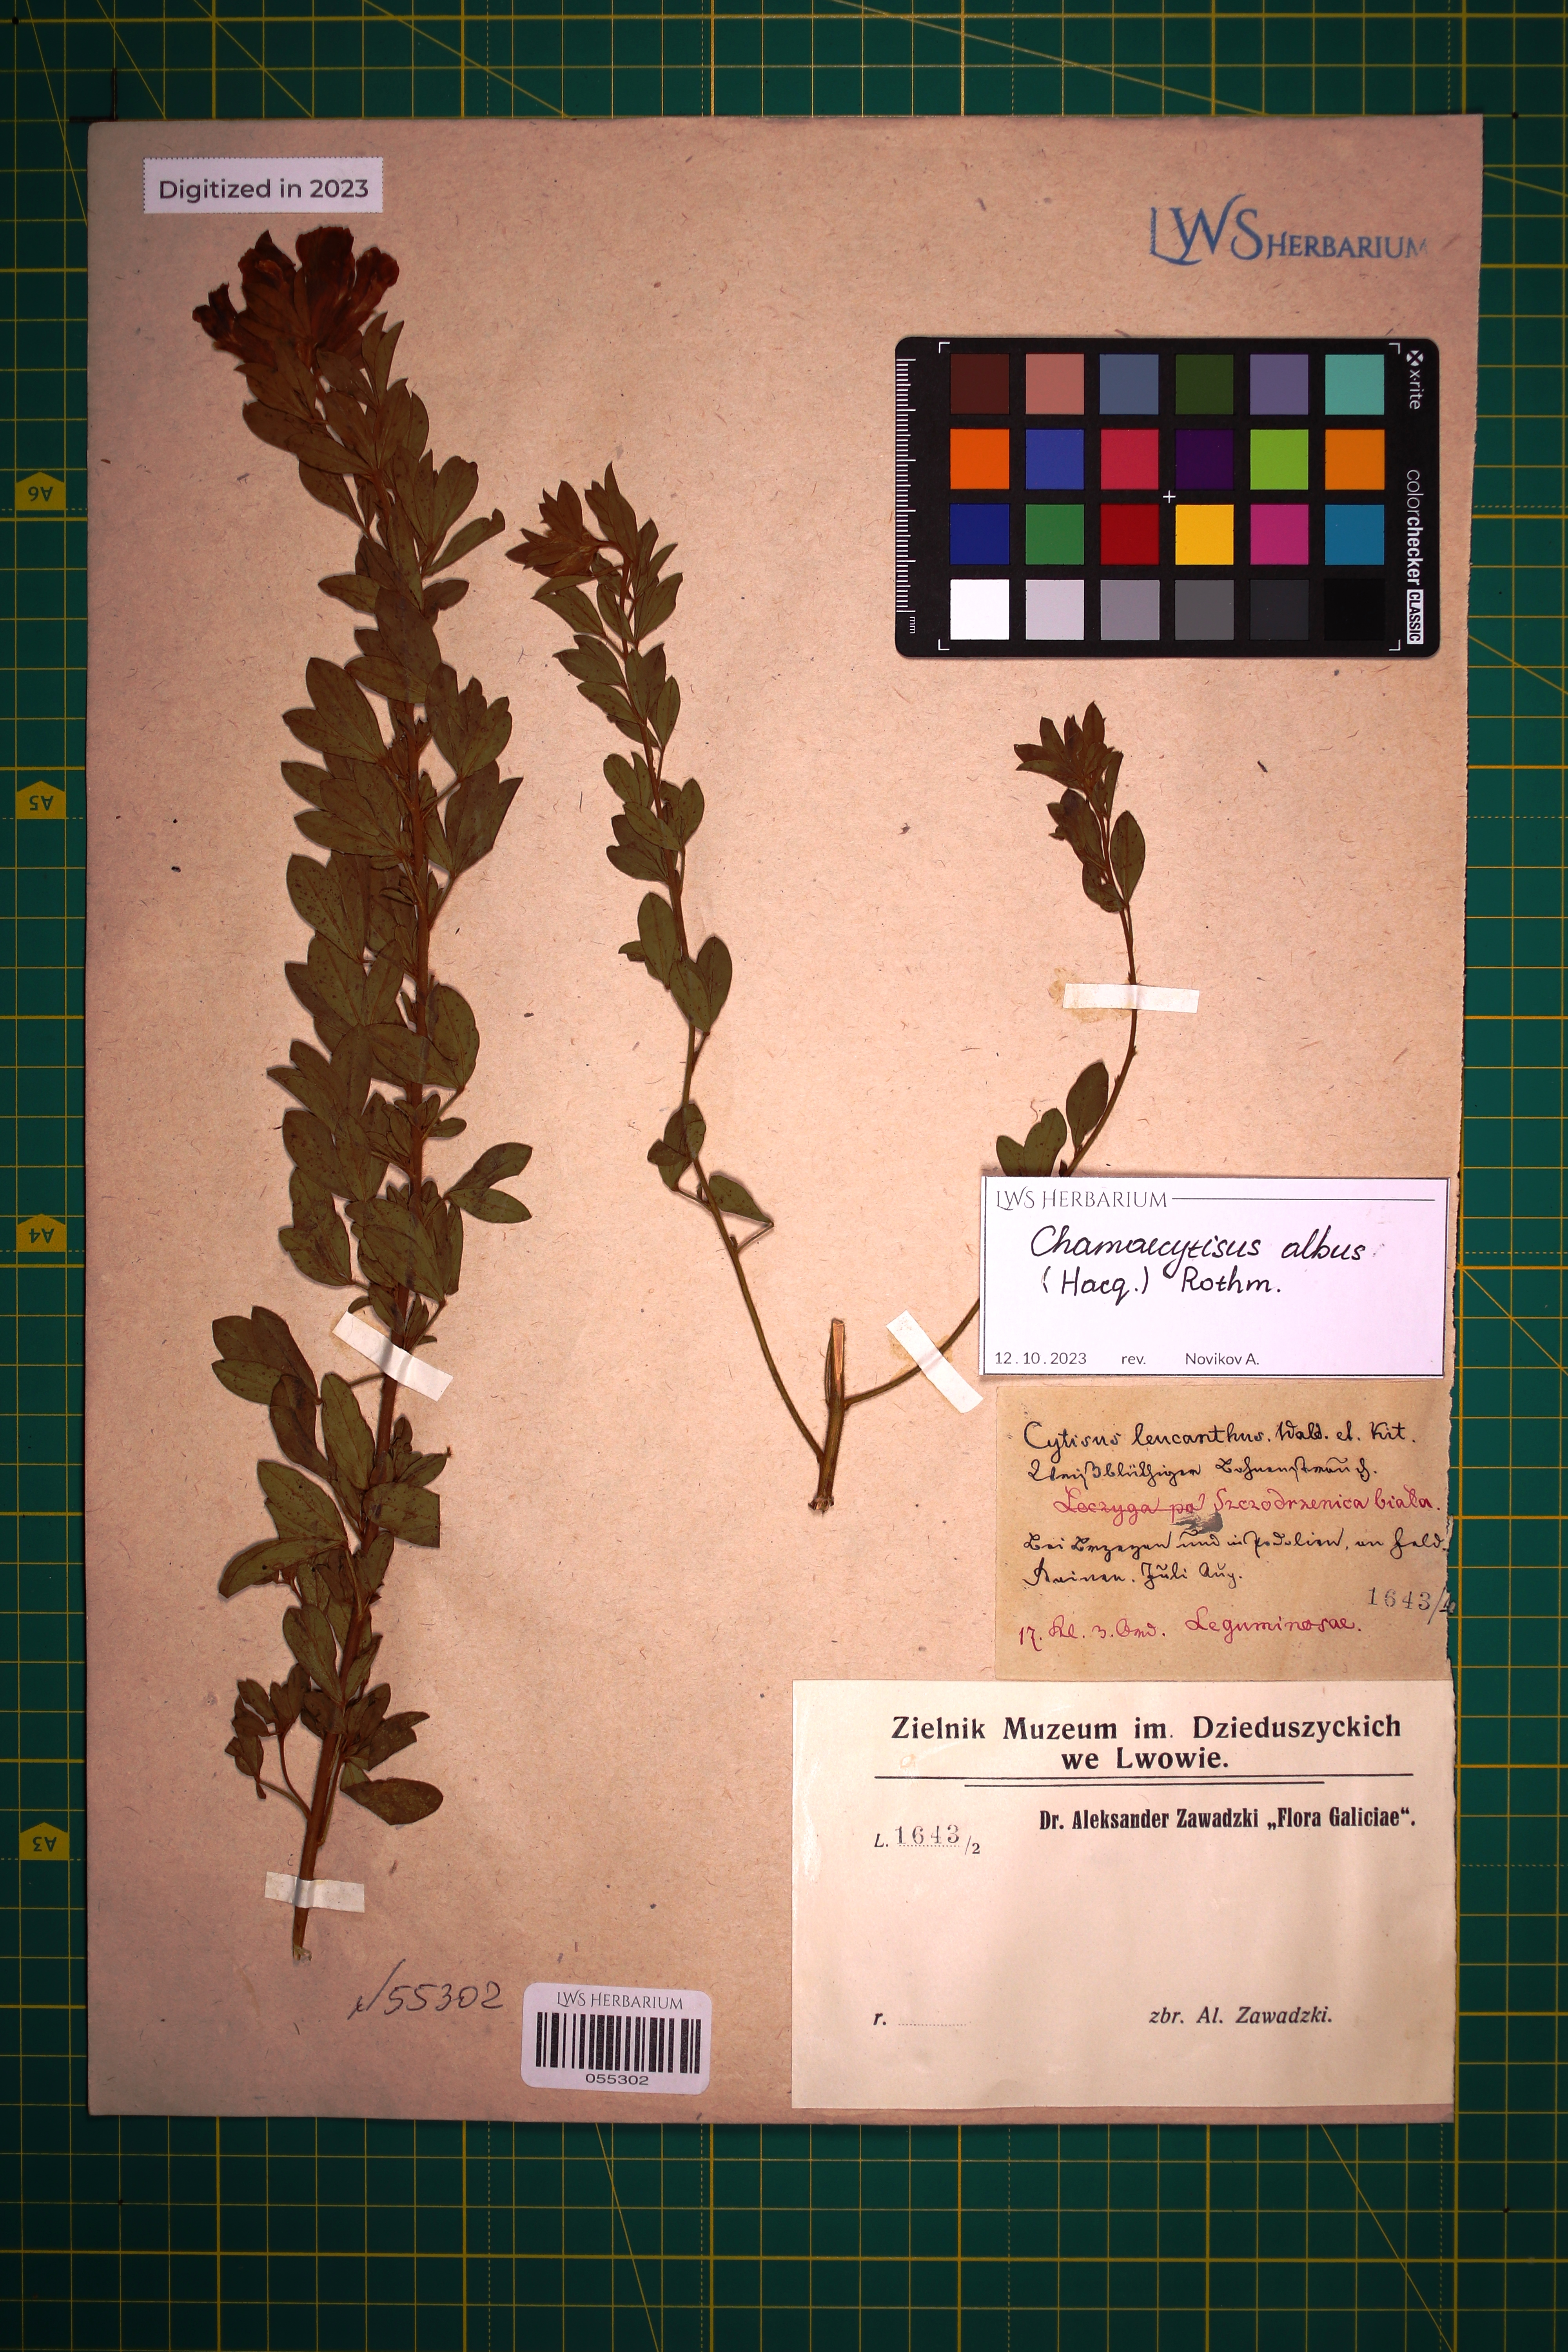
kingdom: Plantae
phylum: Tracheophyta
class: Magnoliopsida
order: Fabales
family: Fabaceae
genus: Chamaecytisus
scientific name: Chamaecytisus albus
